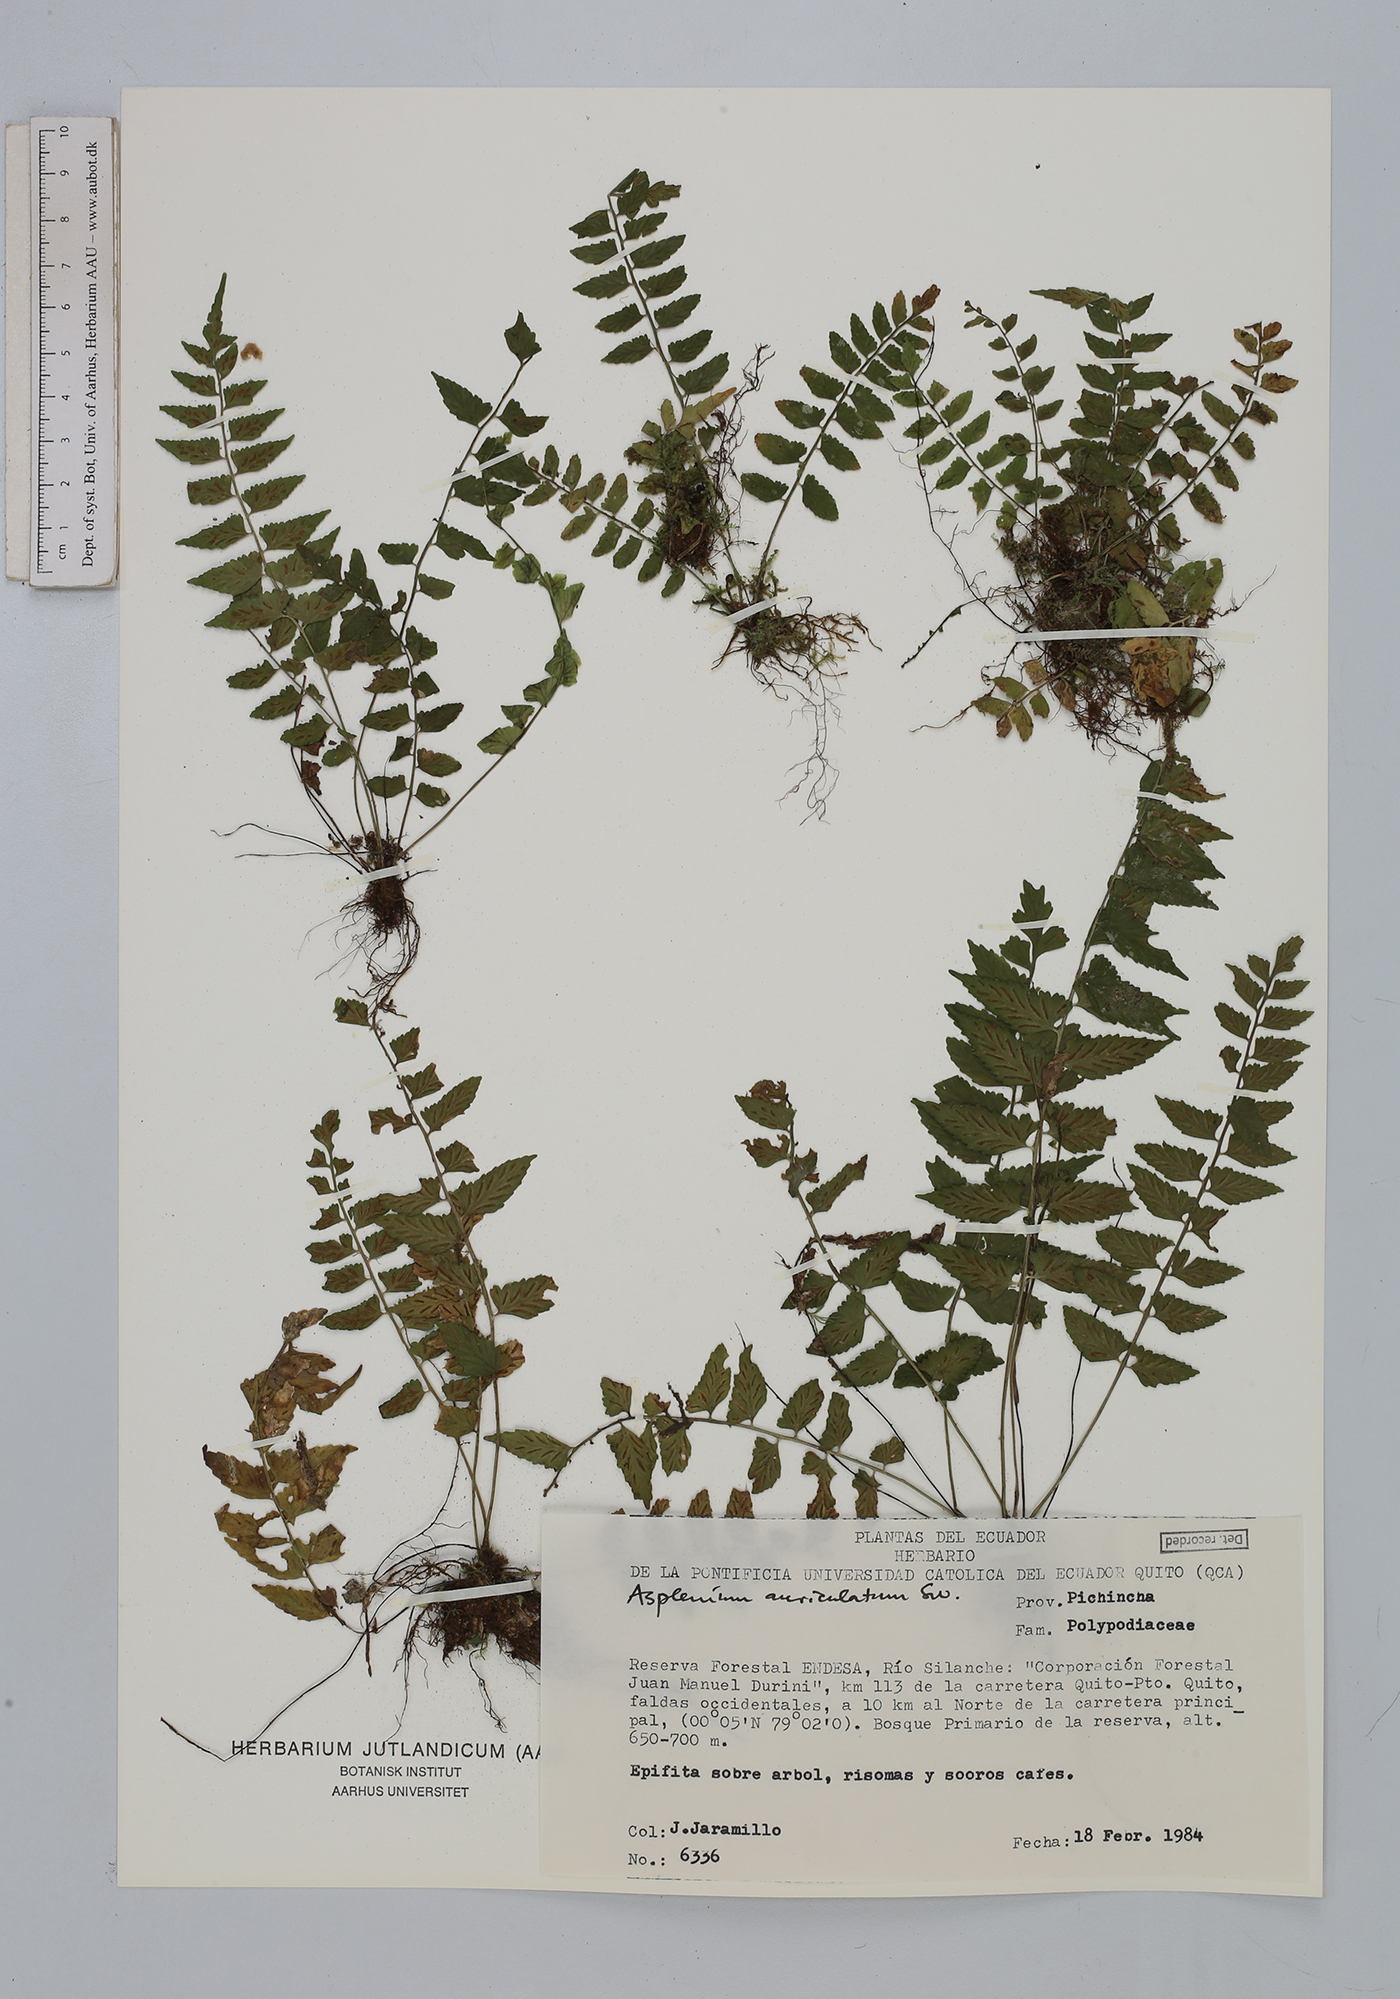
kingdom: Plantae
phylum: Tracheophyta
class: Polypodiopsida
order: Polypodiales
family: Aspleniaceae
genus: Asplenium
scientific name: Asplenium auriculatum
